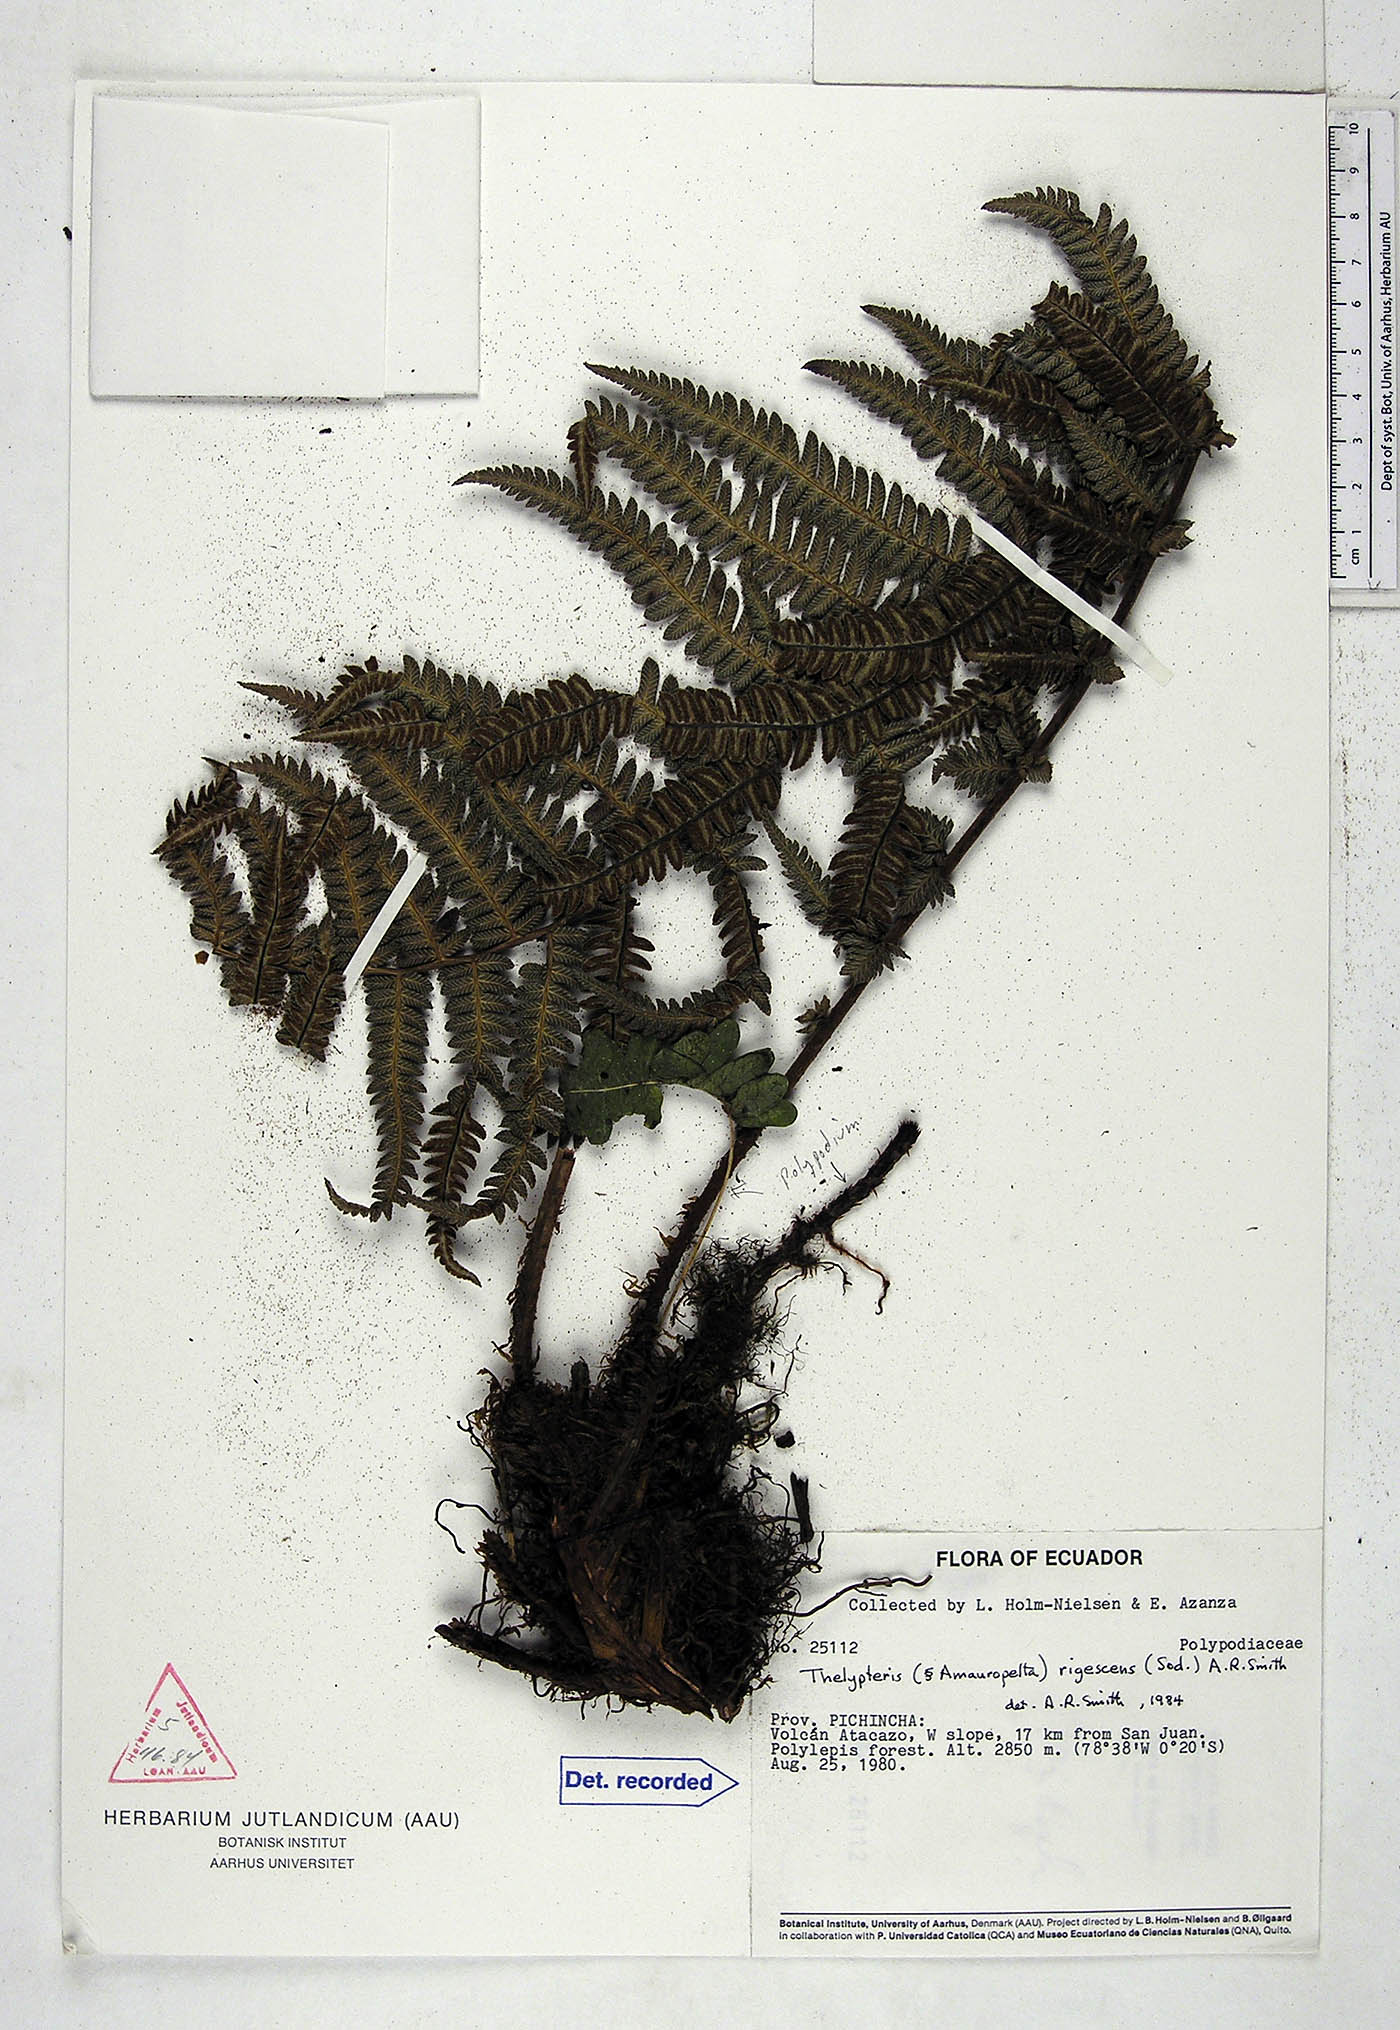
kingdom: Plantae
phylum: Tracheophyta
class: Polypodiopsida
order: Polypodiales
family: Thelypteridaceae
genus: Amauropelta
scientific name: Amauropelta rigescens
